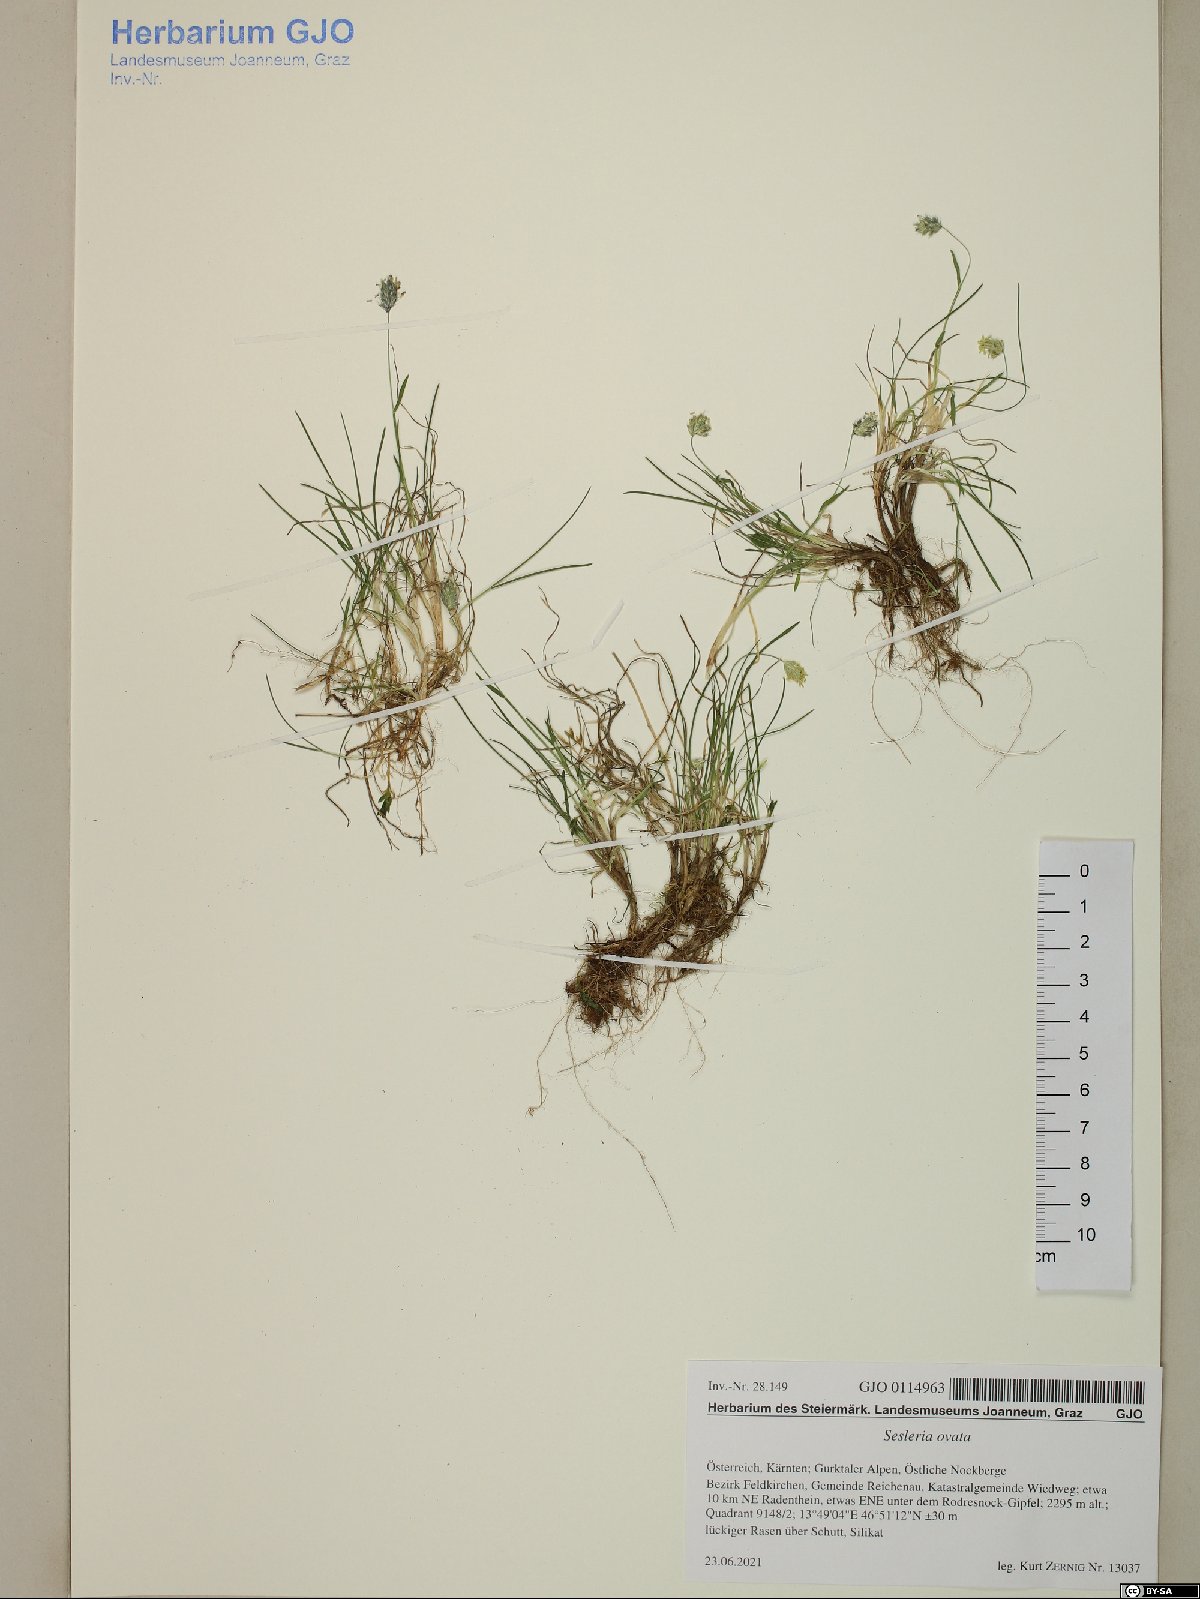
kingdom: Plantae
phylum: Tracheophyta
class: Liliopsida
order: Poales
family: Poaceae
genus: Psilathera
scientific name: Psilathera ovata
